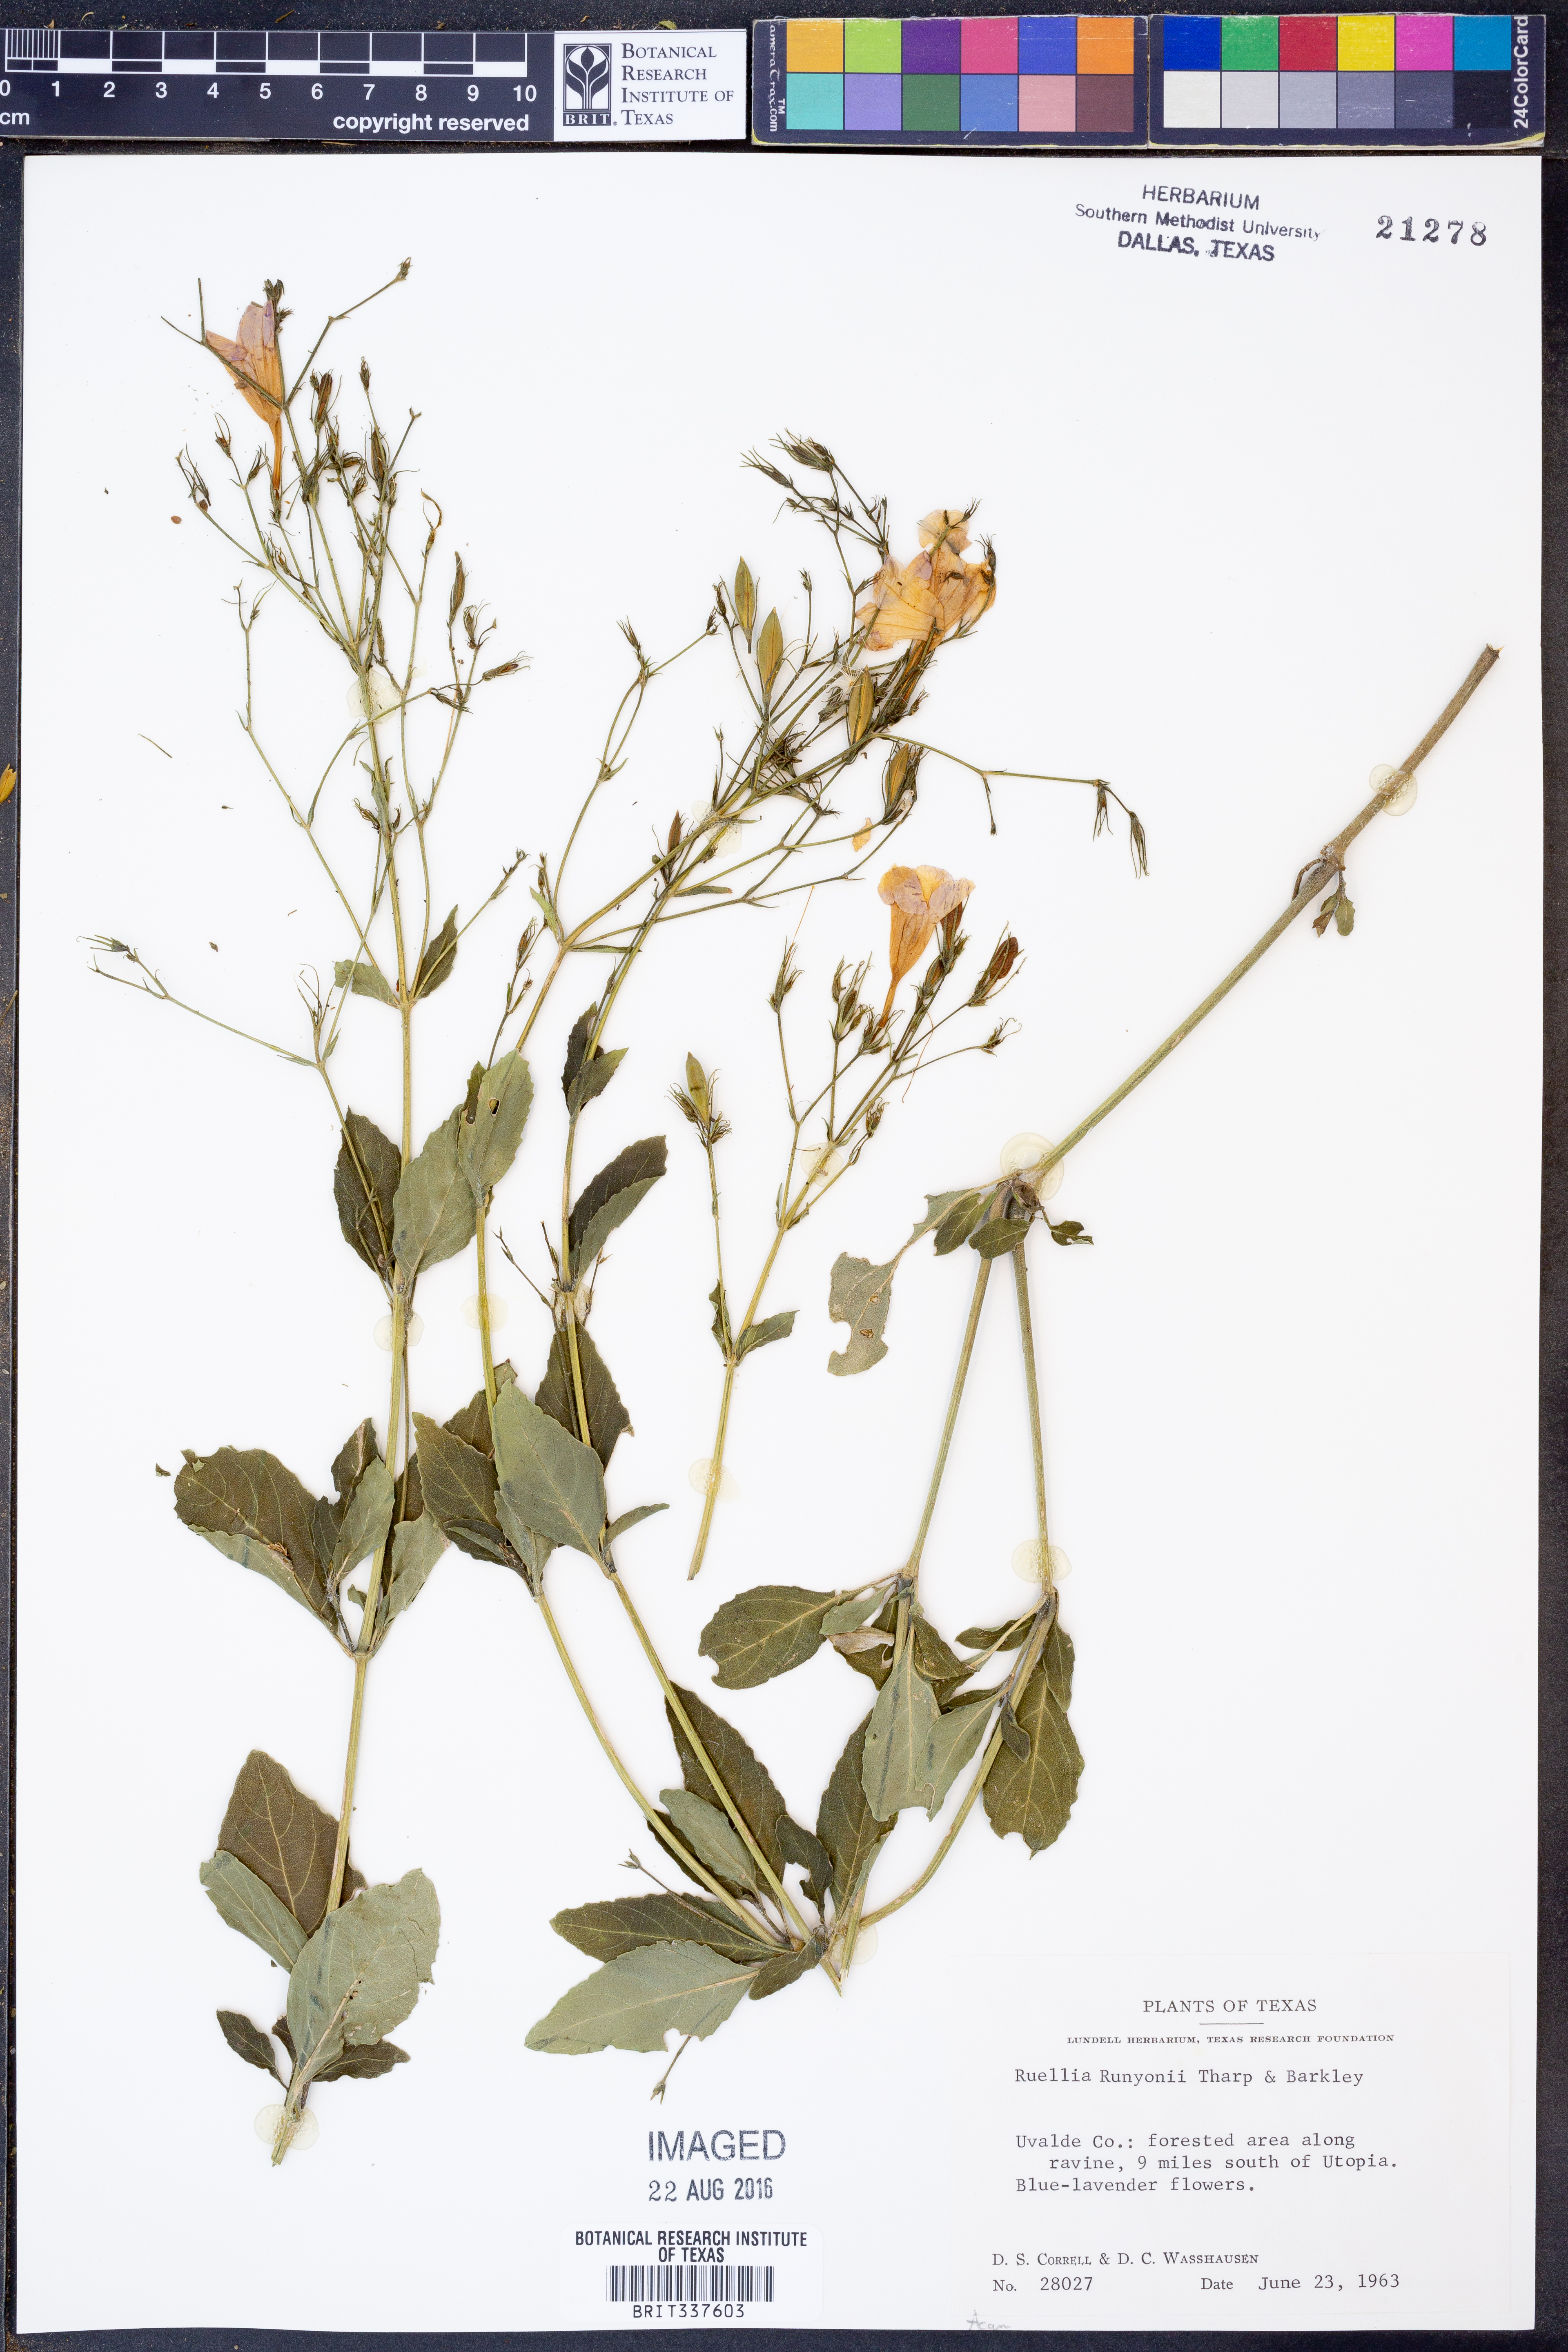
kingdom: Plantae
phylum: Tracheophyta
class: Magnoliopsida
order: Lamiales
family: Acanthaceae
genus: Ruellia
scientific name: Ruellia ciliatiflora
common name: Hairyflower wild petunia
